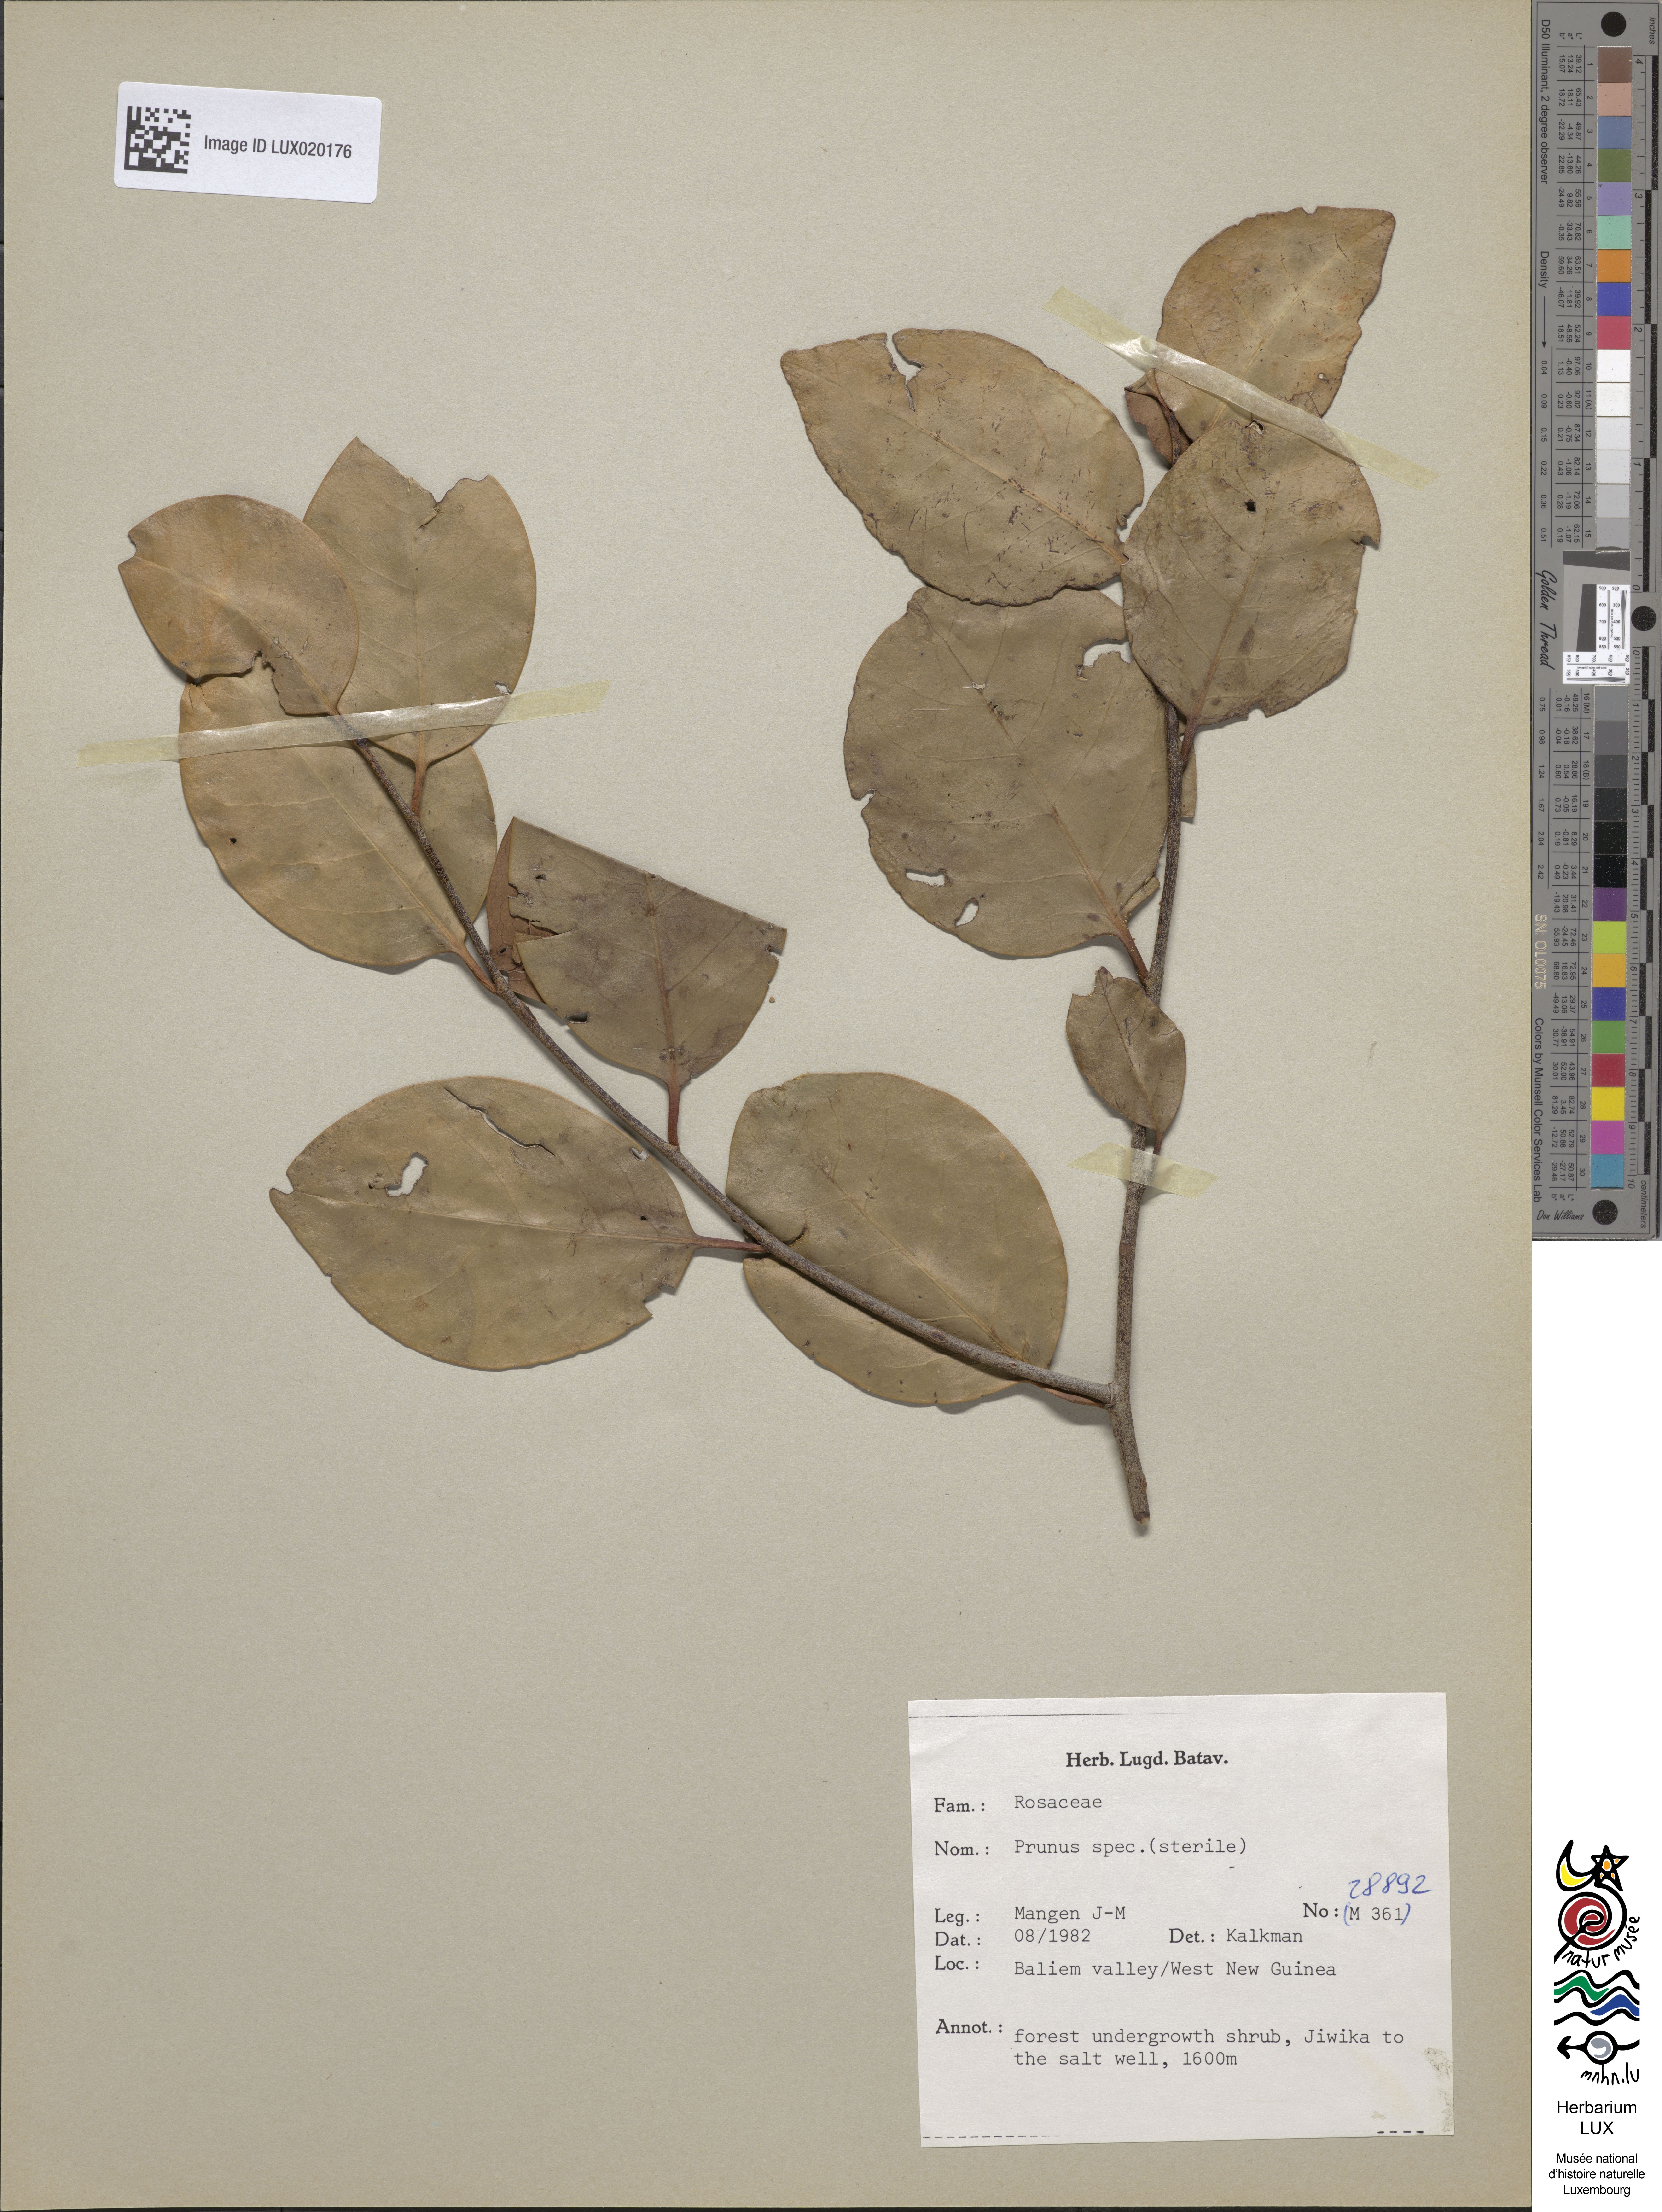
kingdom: Plantae
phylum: Tracheophyta
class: Magnoliopsida
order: Rosales
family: Rosaceae
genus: Prunus
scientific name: Prunus
